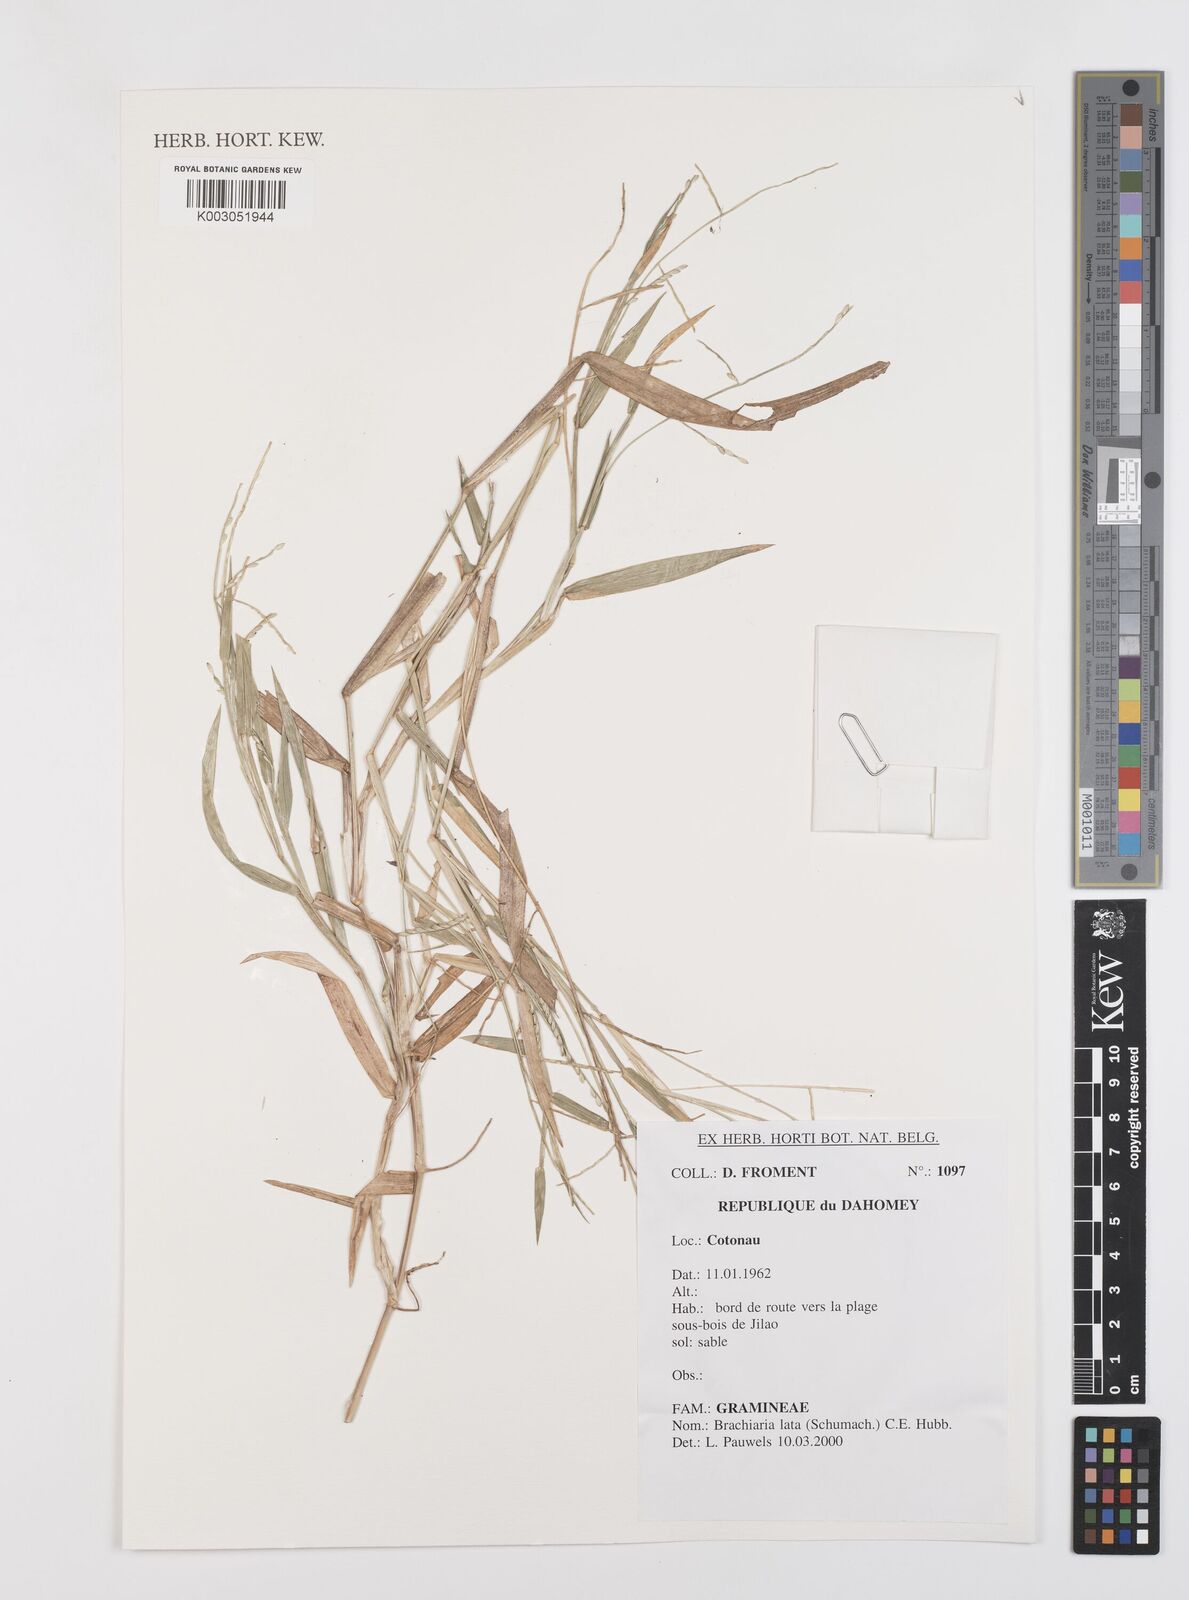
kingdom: Plantae
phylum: Tracheophyta
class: Liliopsida
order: Poales
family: Poaceae
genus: Urochloa
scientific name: Urochloa lata
